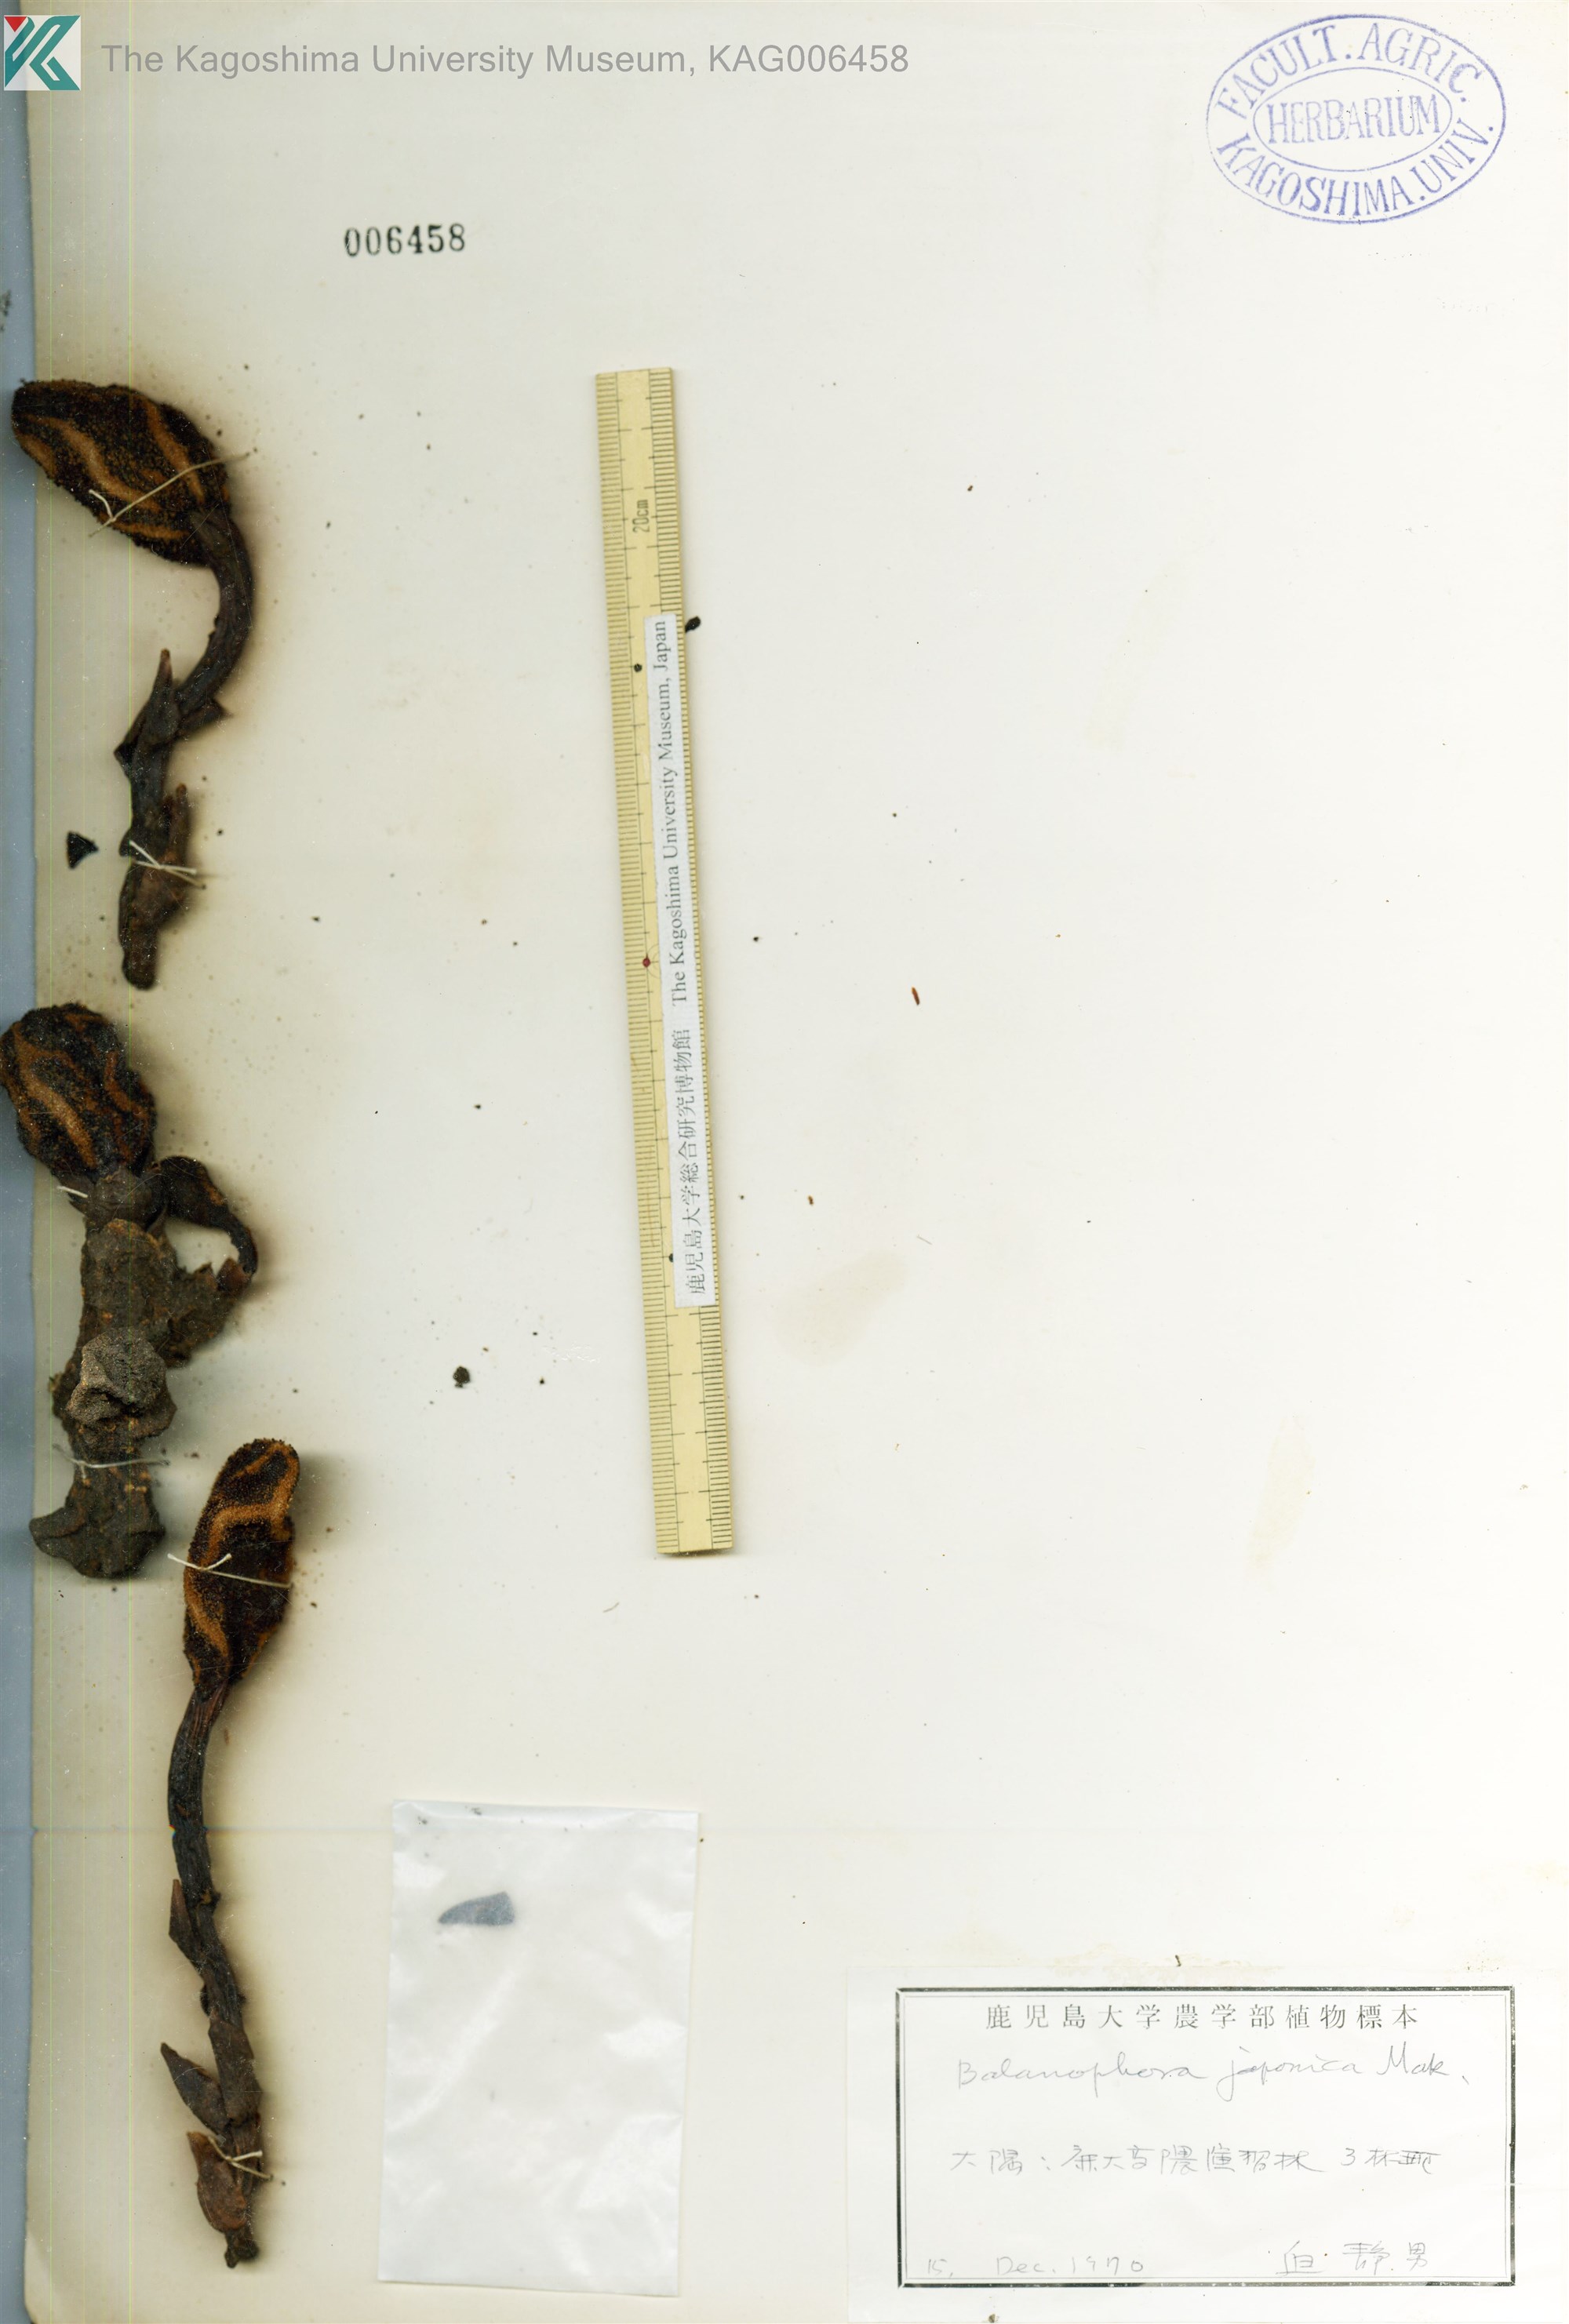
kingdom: Plantae
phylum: Tracheophyta
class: Magnoliopsida
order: Santalales
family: Balanophoraceae
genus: Balanophora
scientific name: Balanophora japonica
